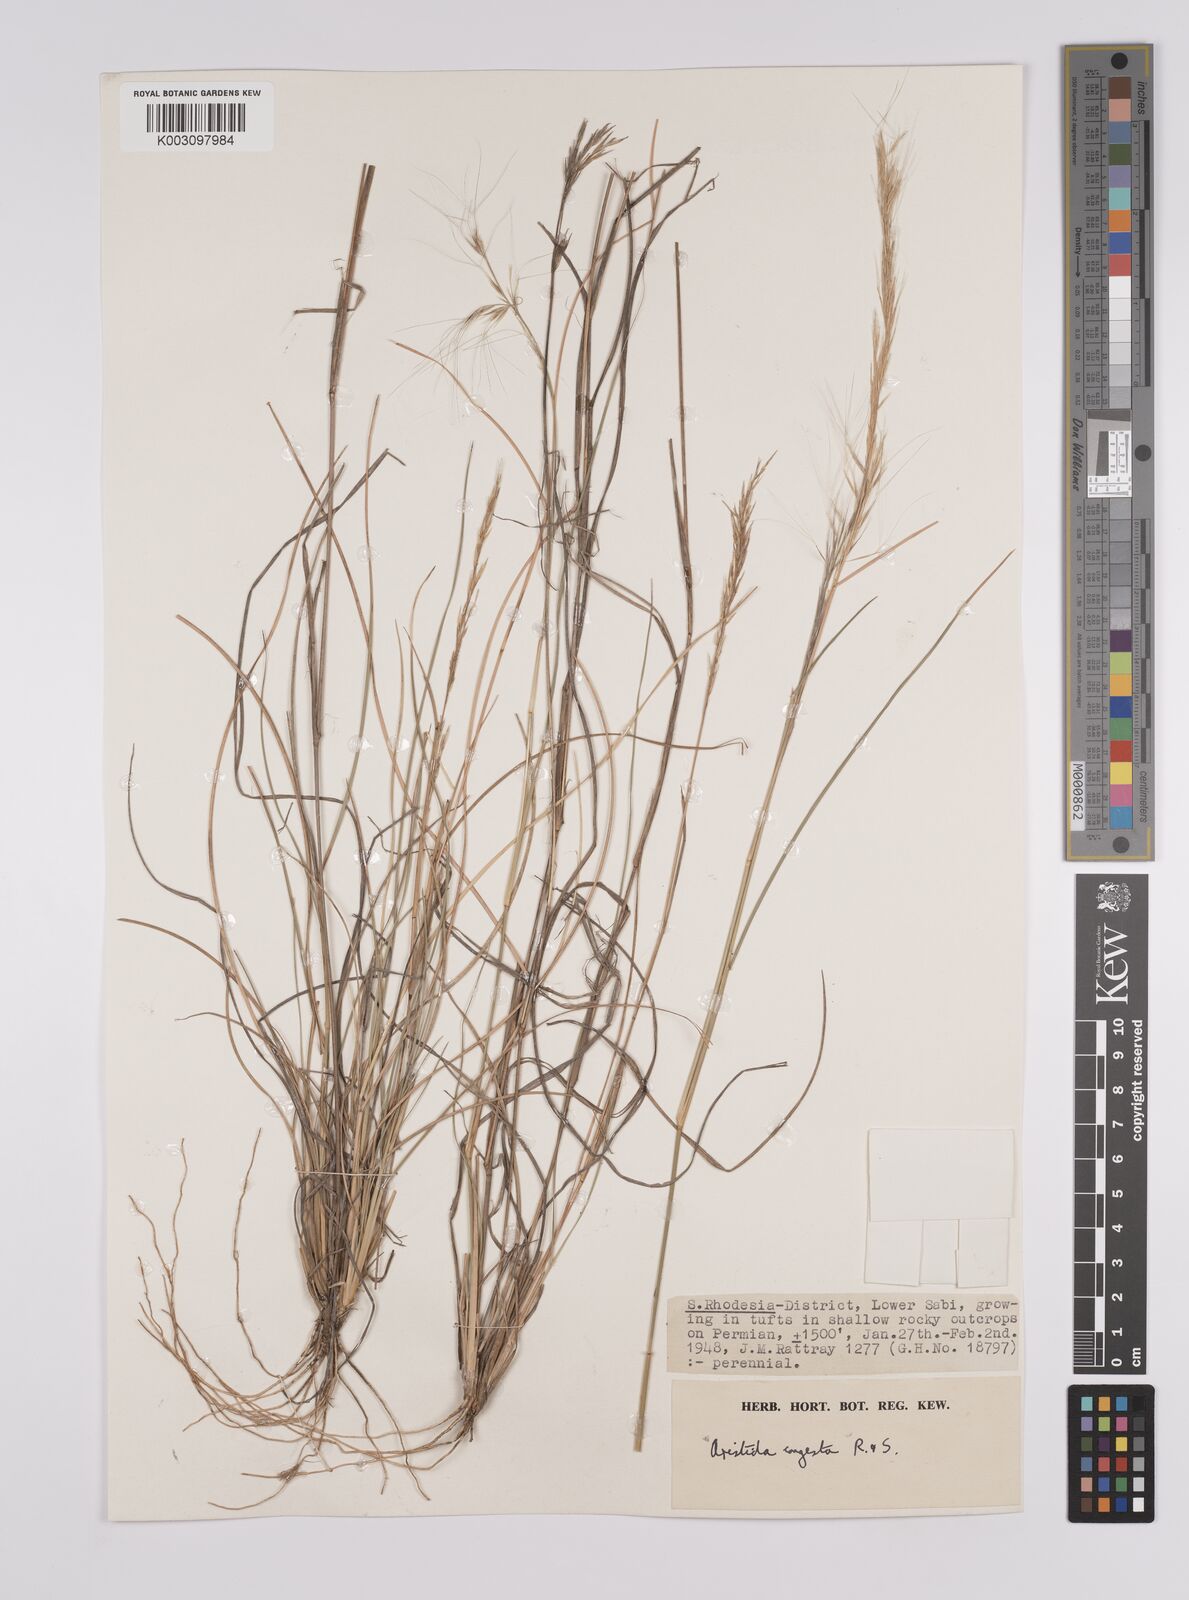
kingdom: Plantae
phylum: Tracheophyta
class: Liliopsida
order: Poales
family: Poaceae
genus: Aristida
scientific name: Aristida congesta
